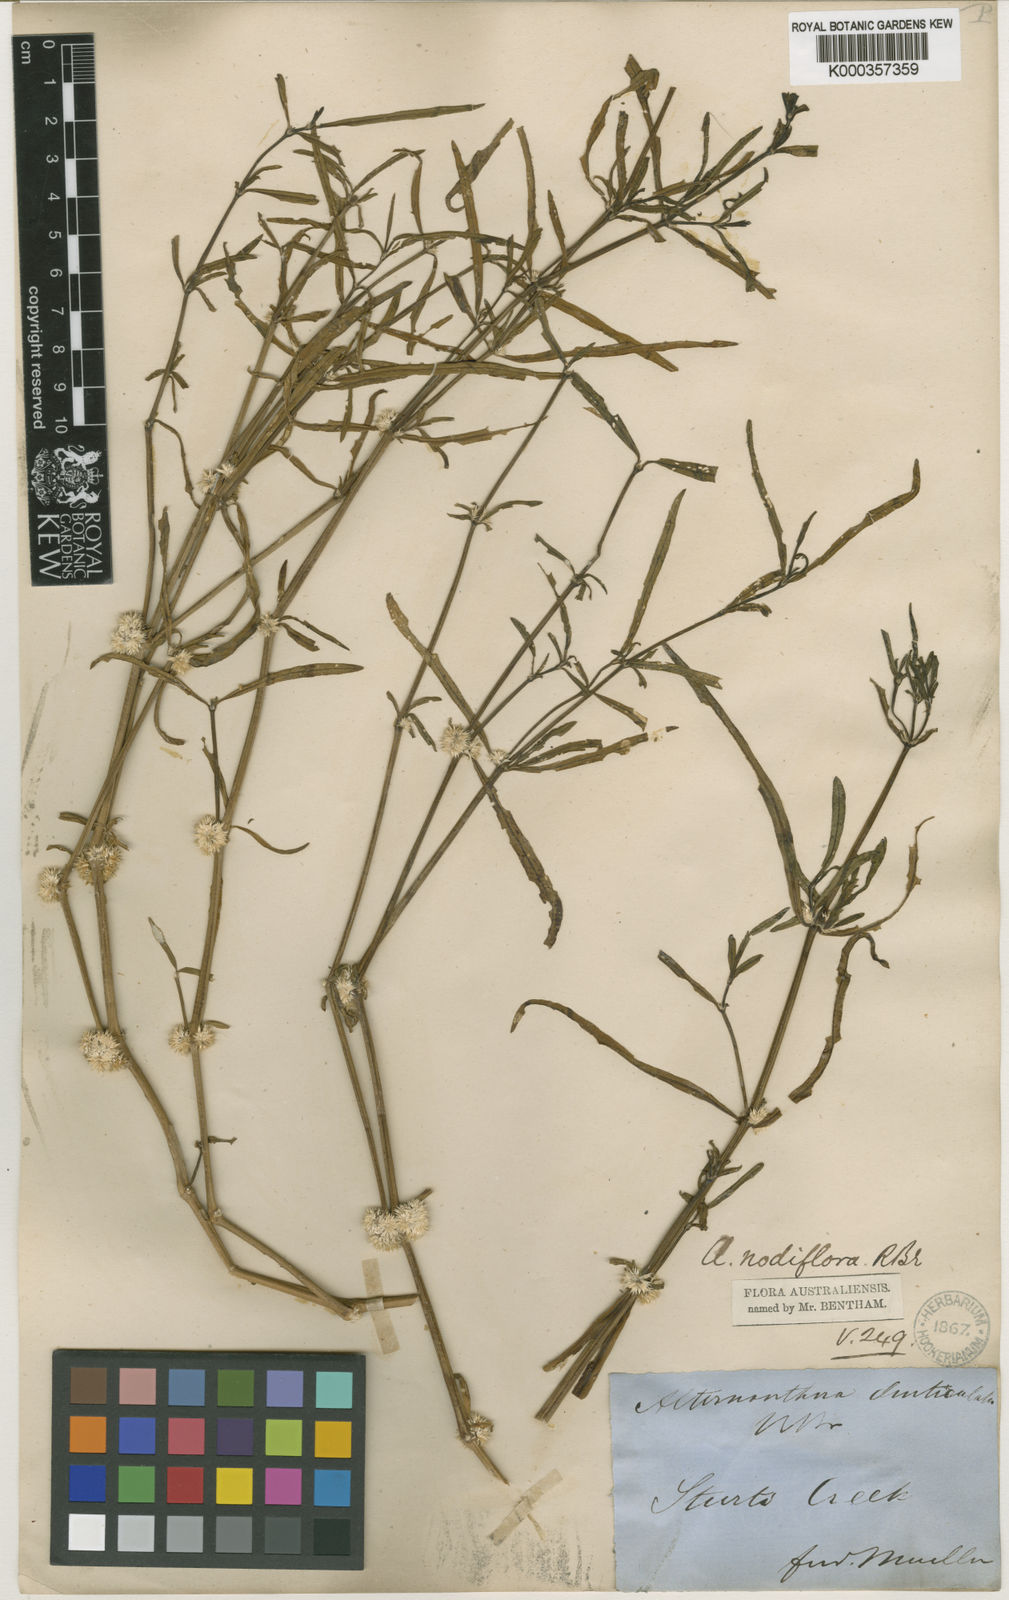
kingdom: Plantae
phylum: Tracheophyta
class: Magnoliopsida
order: Caryophyllales
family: Amaranthaceae
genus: Alternanthera
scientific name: Alternanthera sessilis
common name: Sessile joyweed
